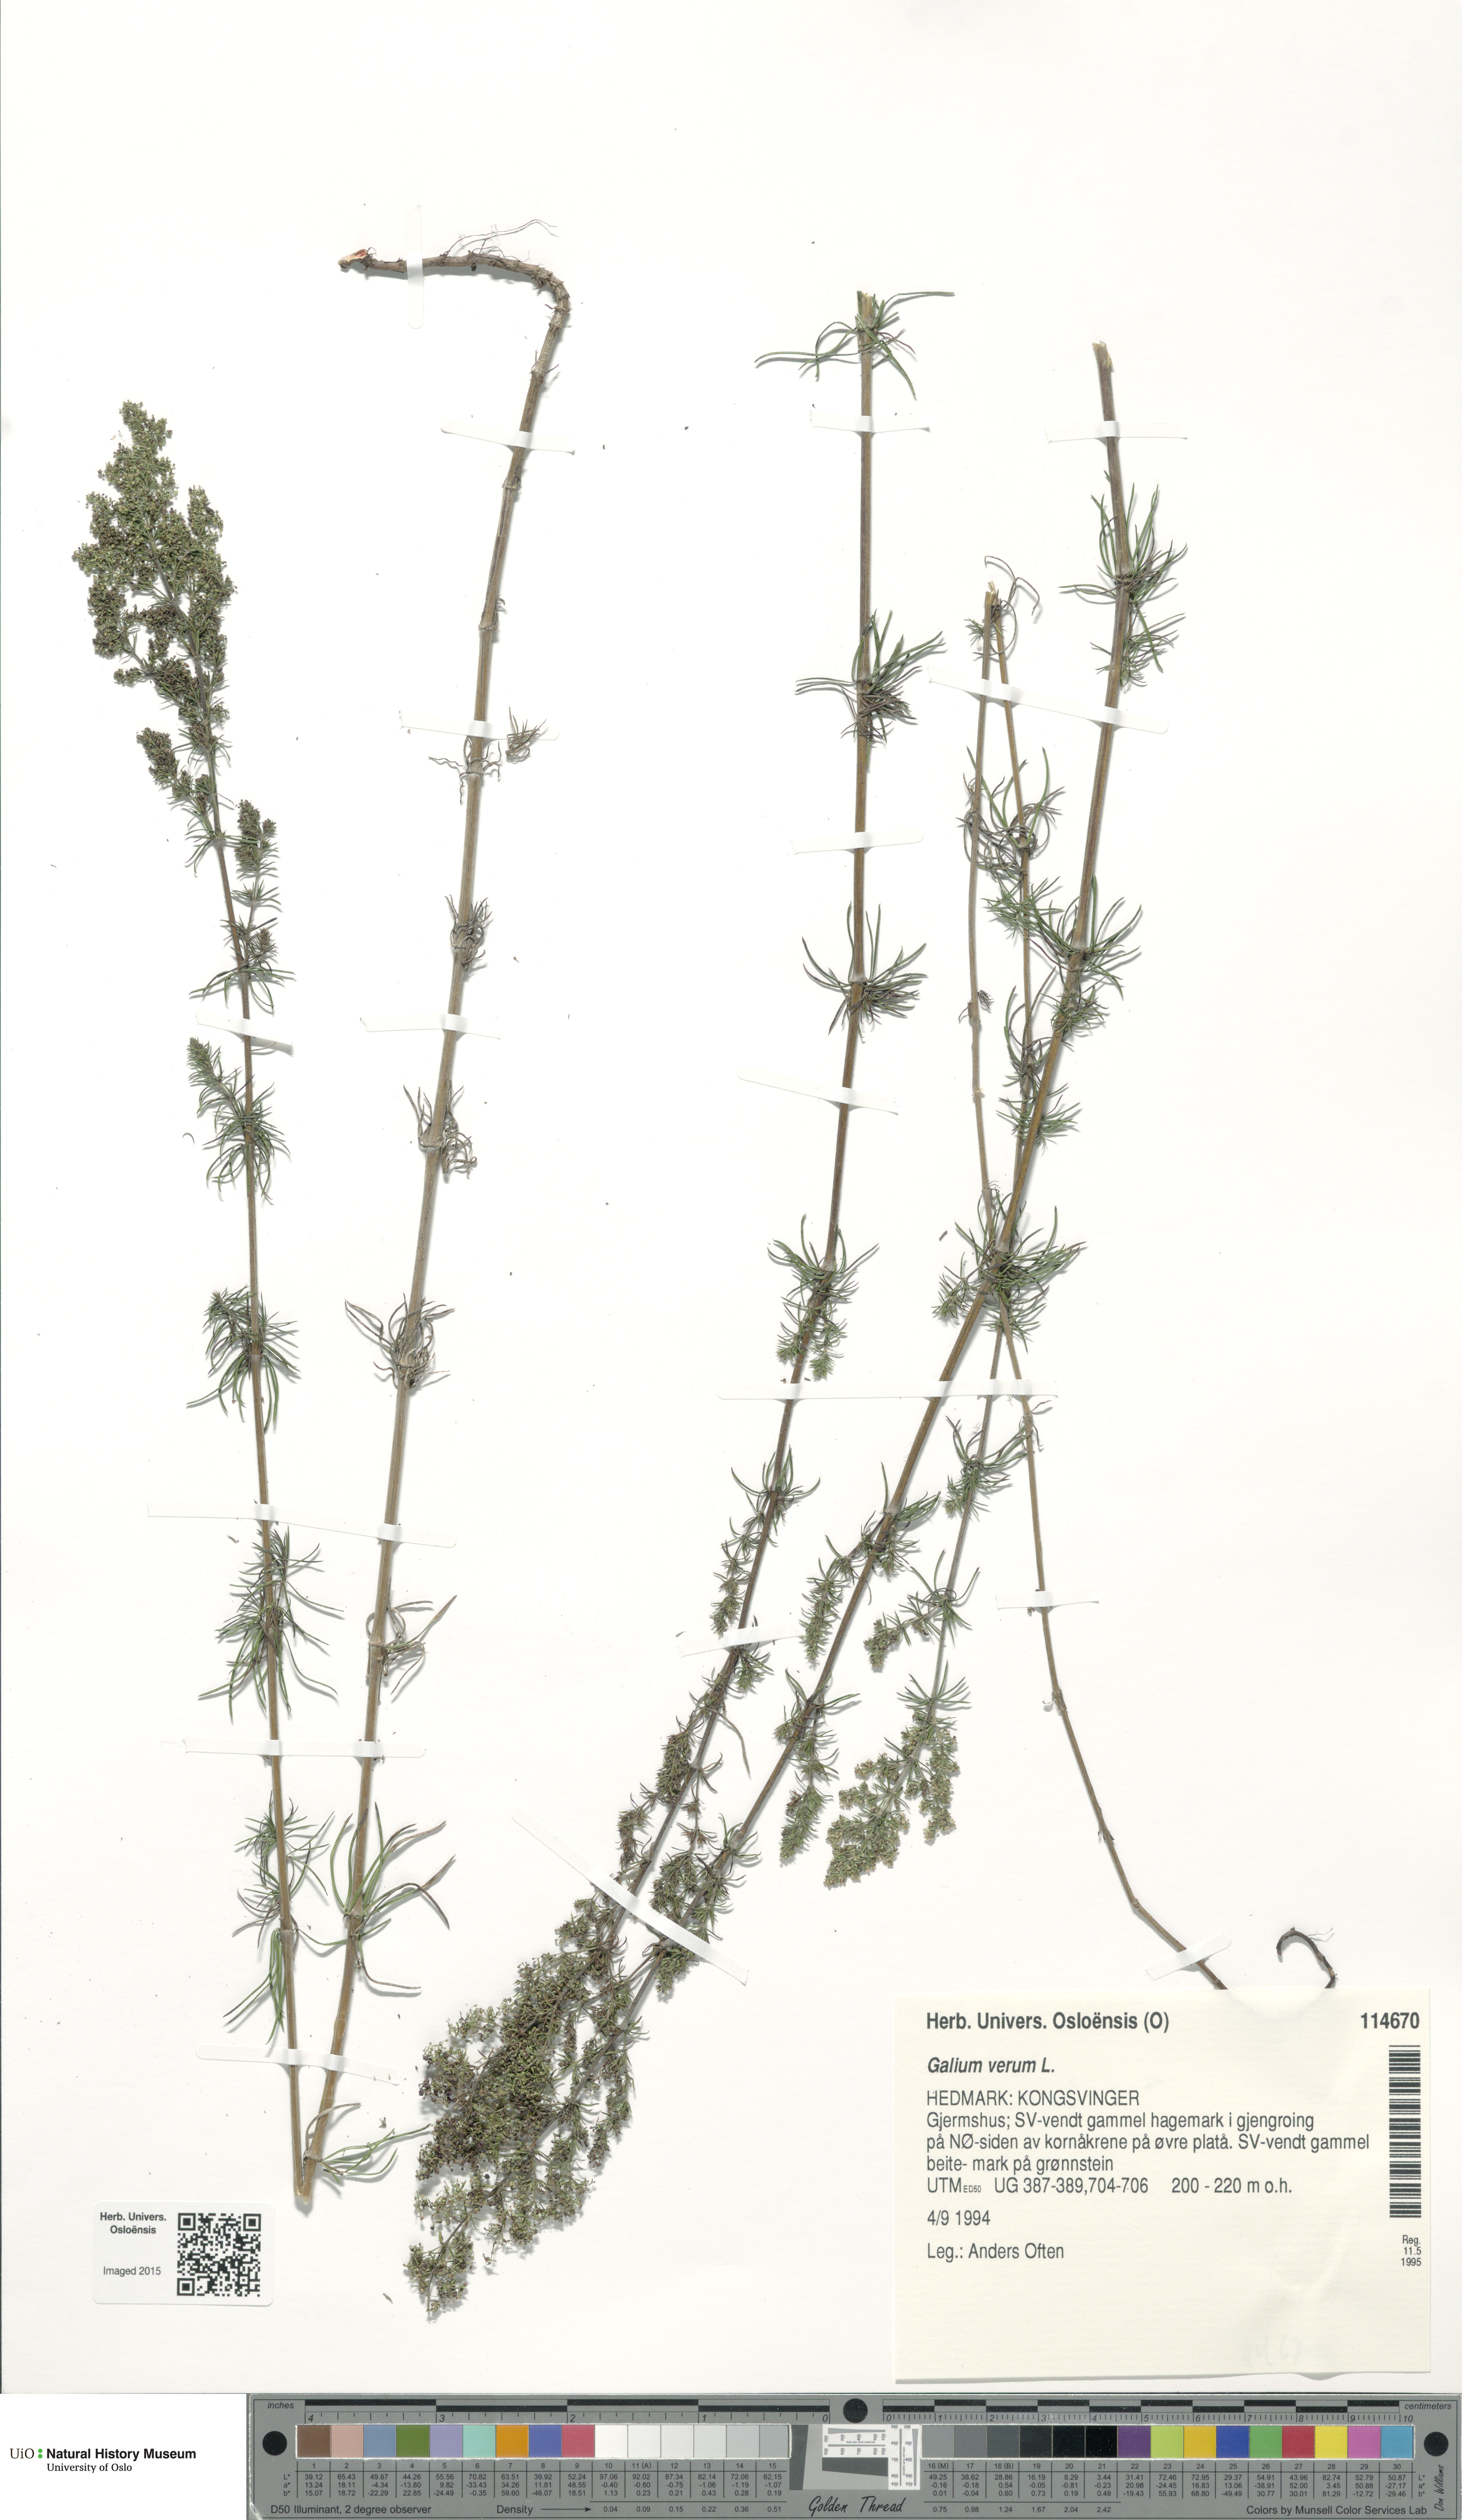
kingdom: Plantae
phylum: Tracheophyta
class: Magnoliopsida
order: Gentianales
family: Rubiaceae
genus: Galium
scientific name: Galium verum
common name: Lady's bedstraw
